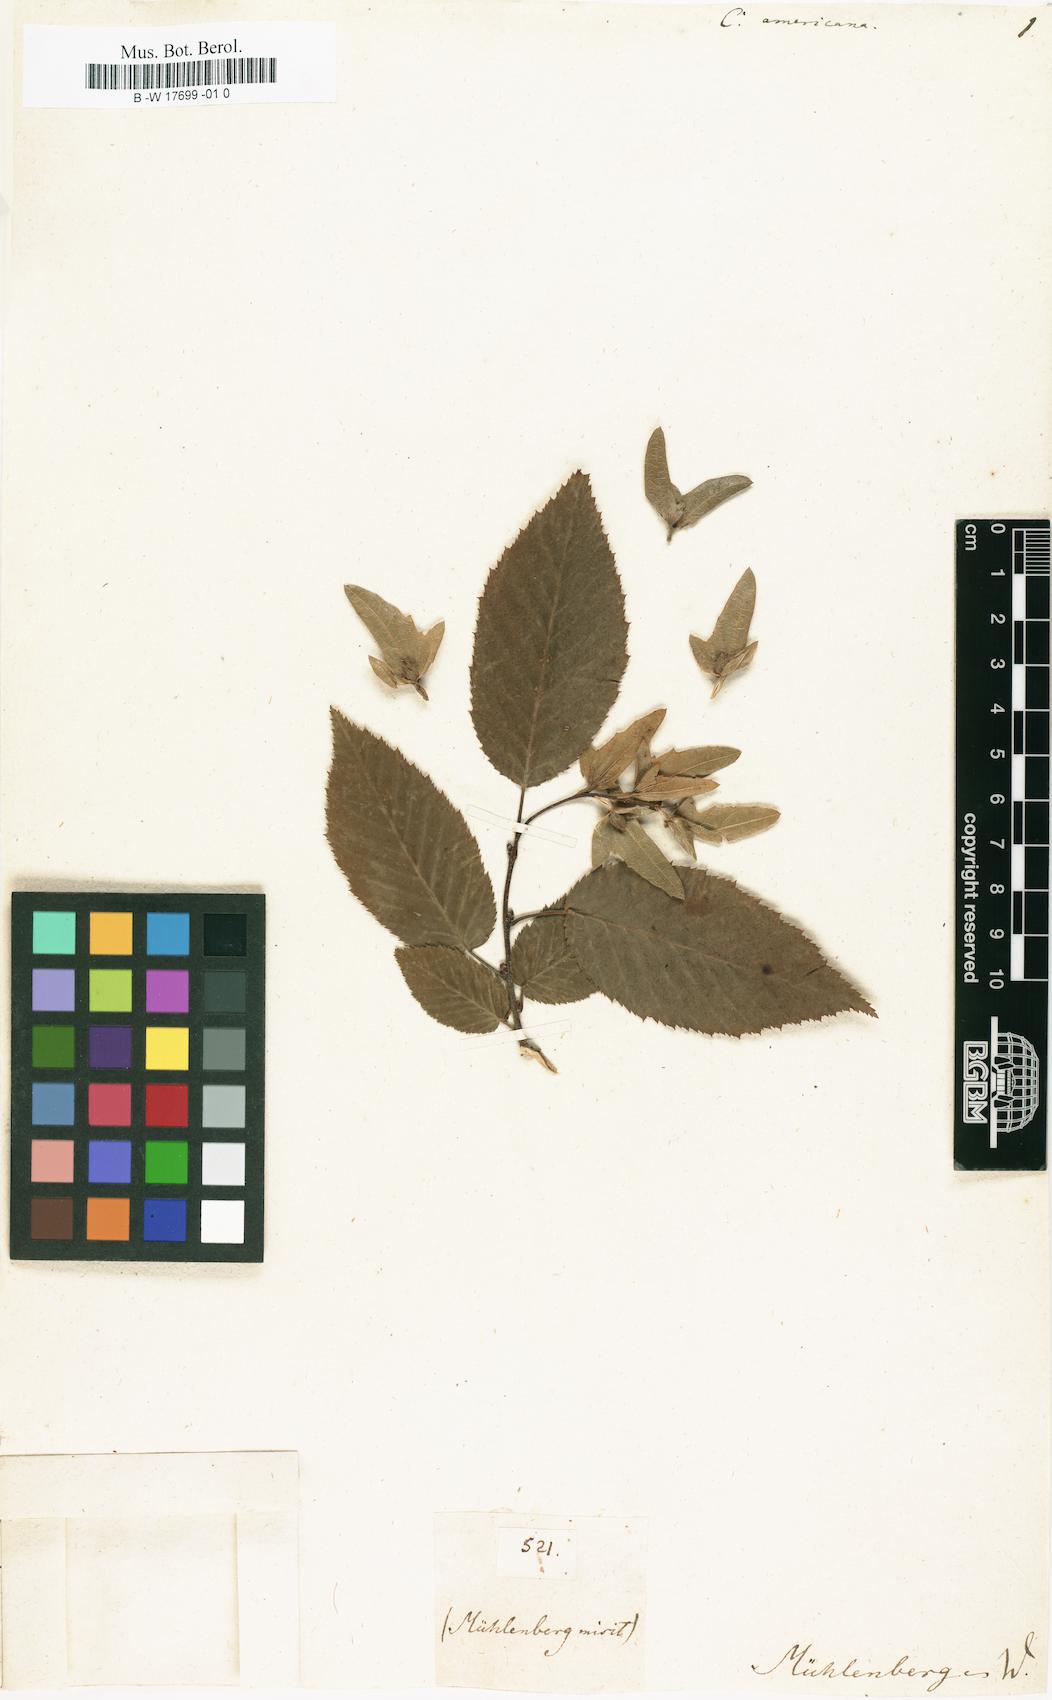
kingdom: Plantae
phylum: Tracheophyta
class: Magnoliopsida
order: Fagales
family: Betulaceae
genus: Carpinus
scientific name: Carpinus caroliniana
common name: American hornbeam
